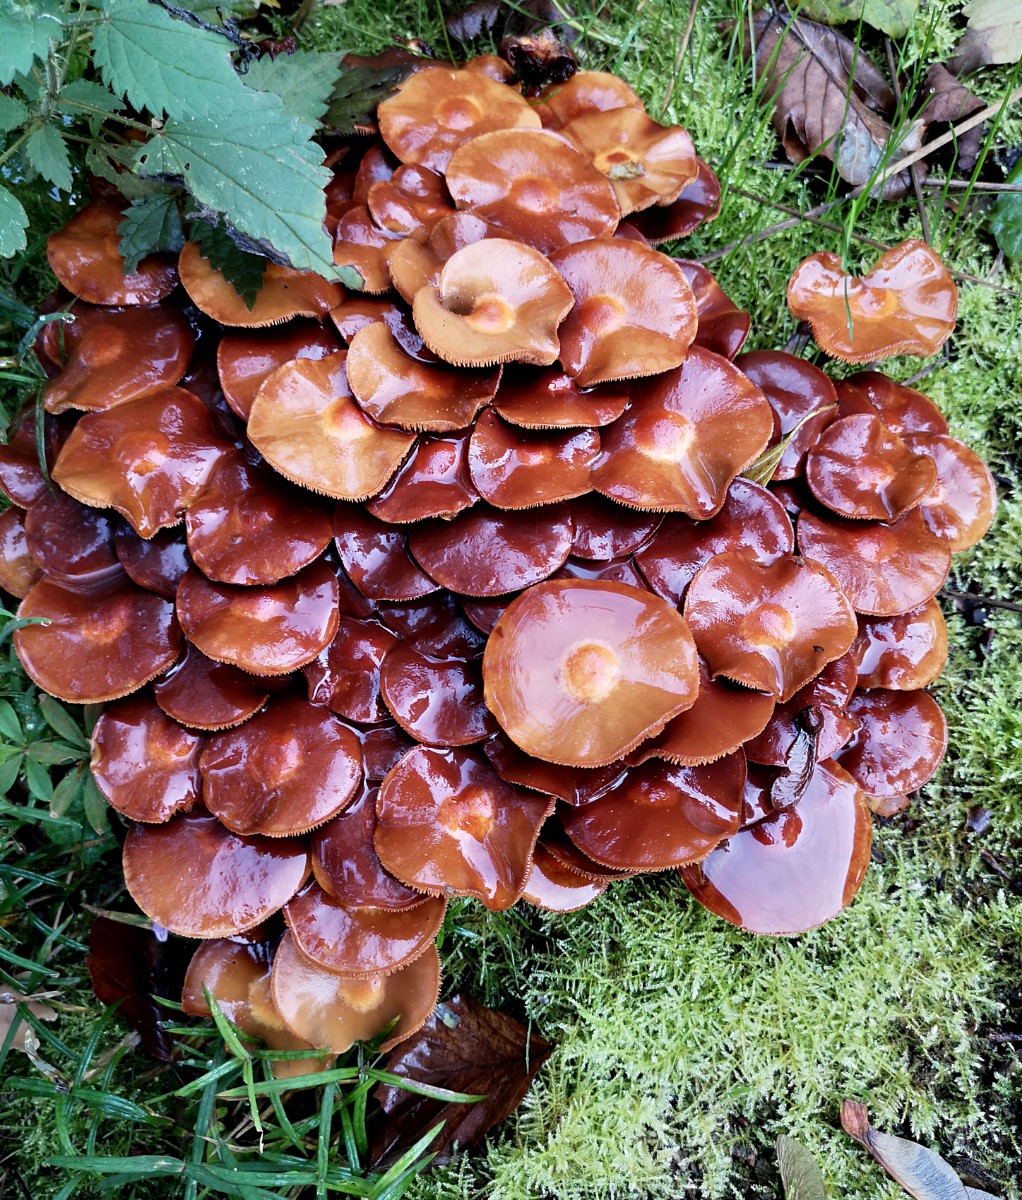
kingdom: Fungi
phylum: Basidiomycota
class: Agaricomycetes
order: Agaricales
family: Strophariaceae
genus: Kuehneromyces
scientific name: Kuehneromyces mutabilis
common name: foranderlig skælhat
